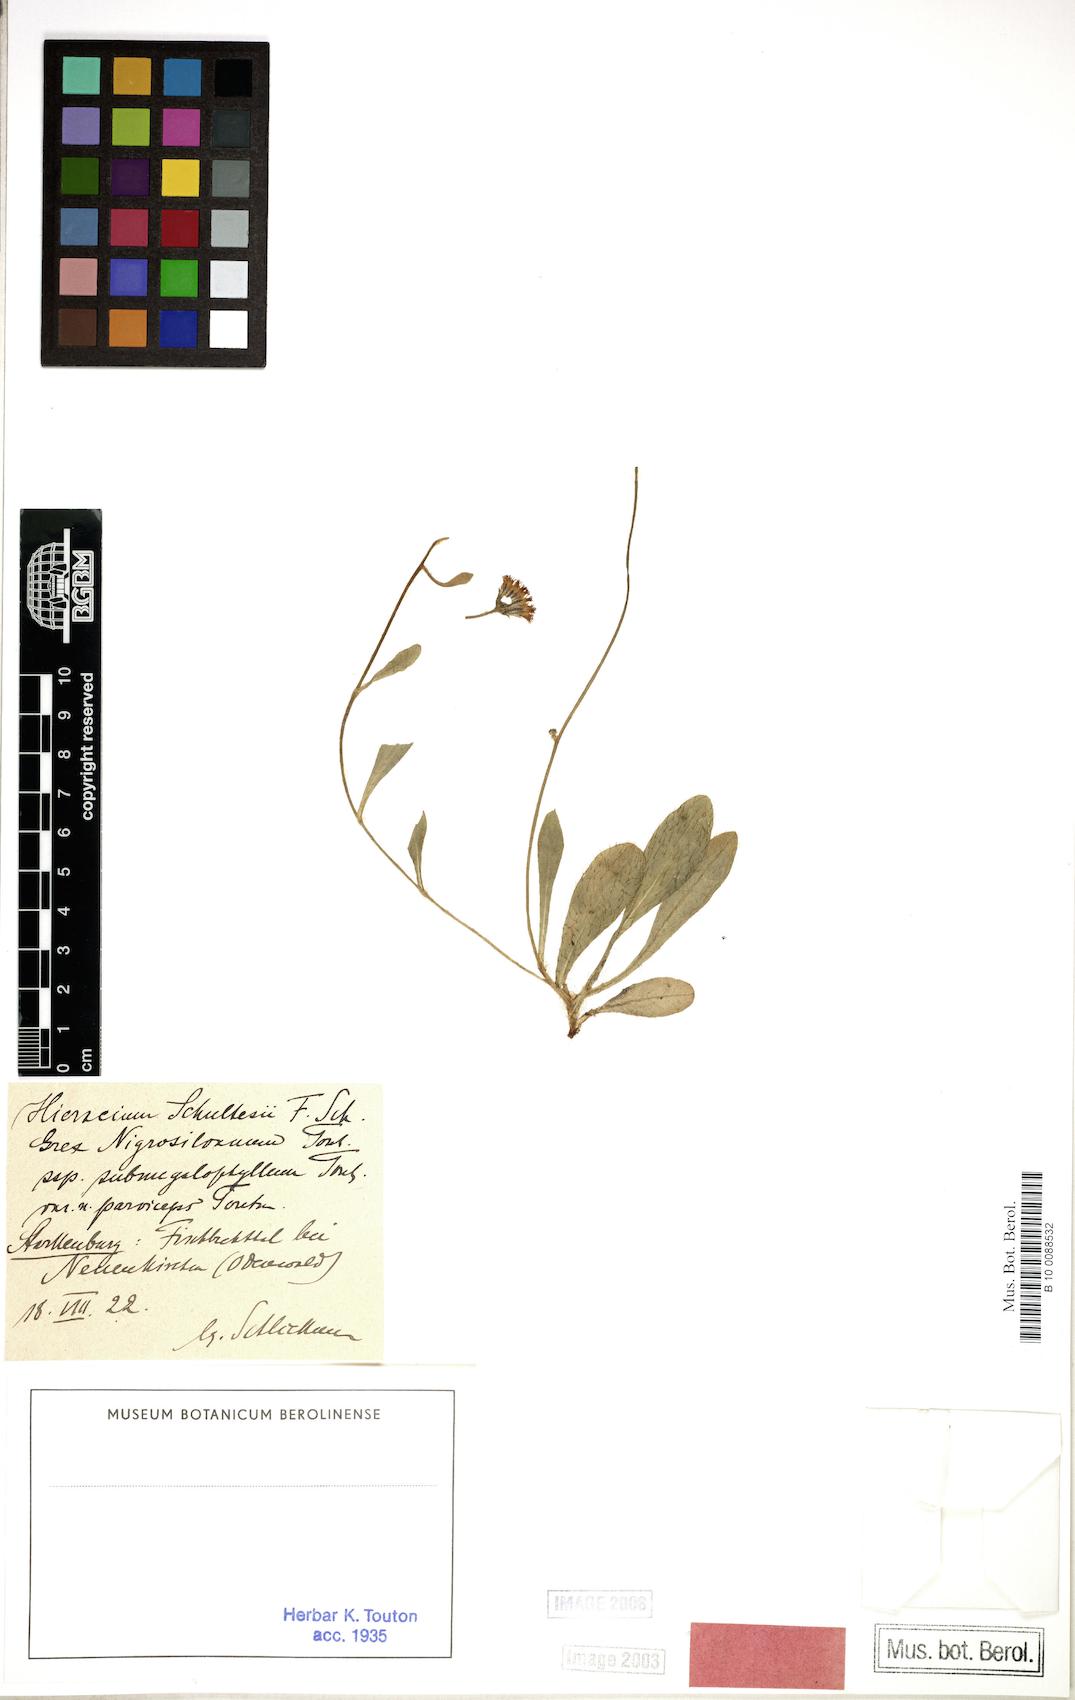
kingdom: Plantae
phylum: Tracheophyta
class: Magnoliopsida
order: Asterales
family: Asteraceae
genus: Pilosella
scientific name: Pilosella schultesii
